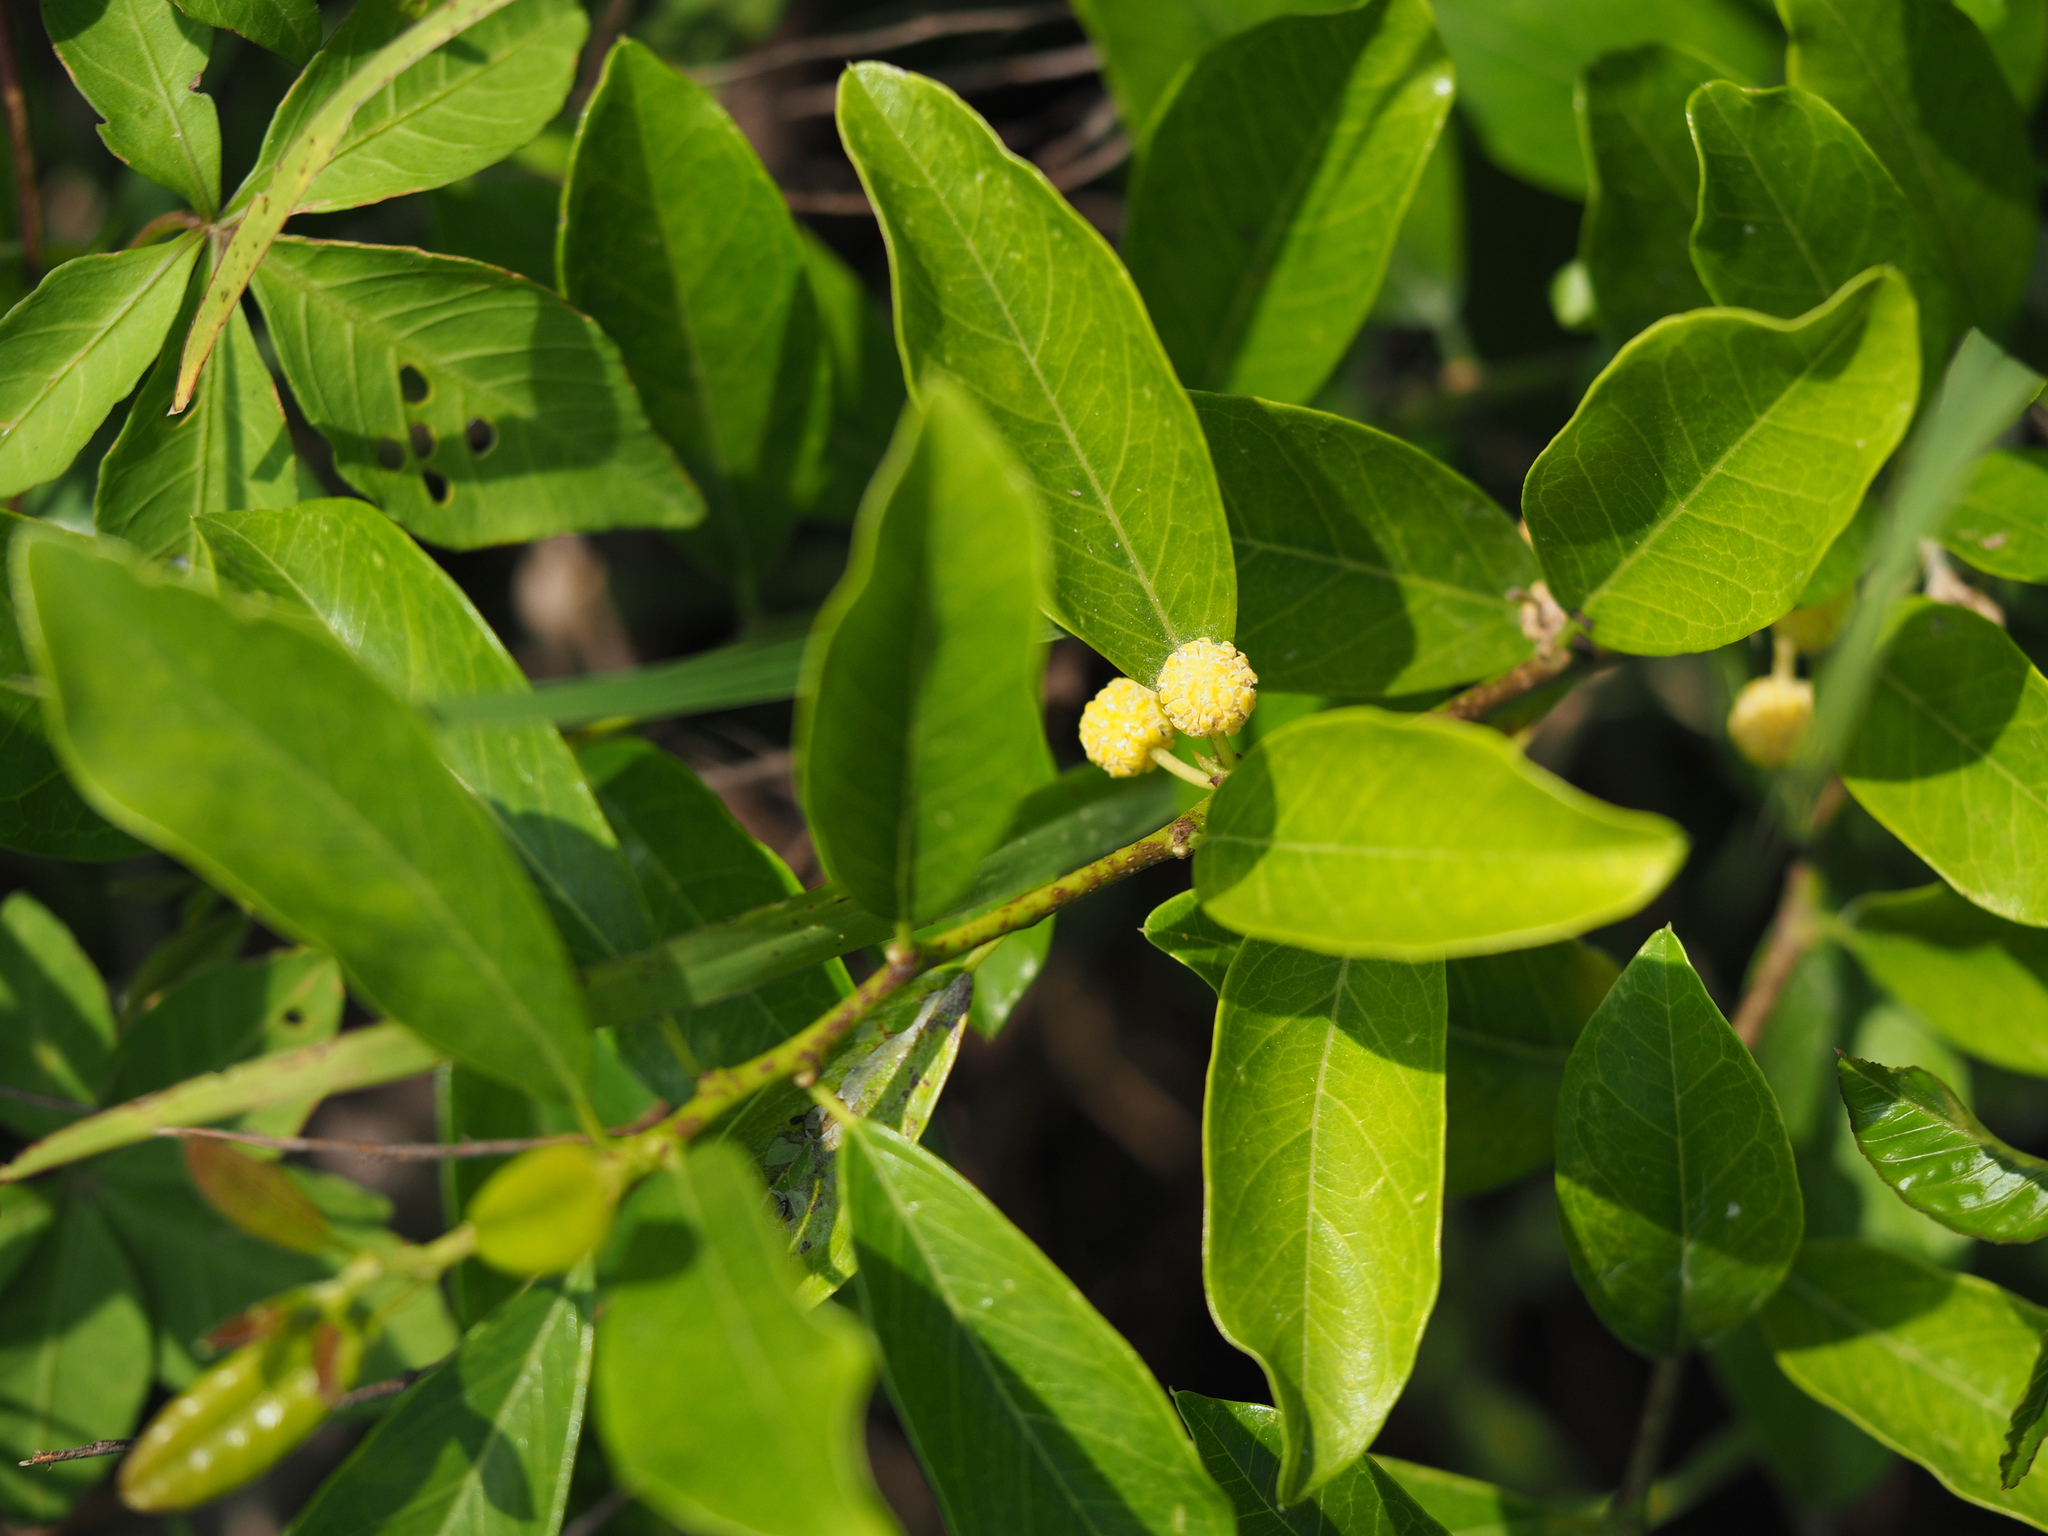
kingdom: Plantae
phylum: Tracheophyta
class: Magnoliopsida
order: Rosales
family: Moraceae
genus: Maclura
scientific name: Maclura cochinchinensis
